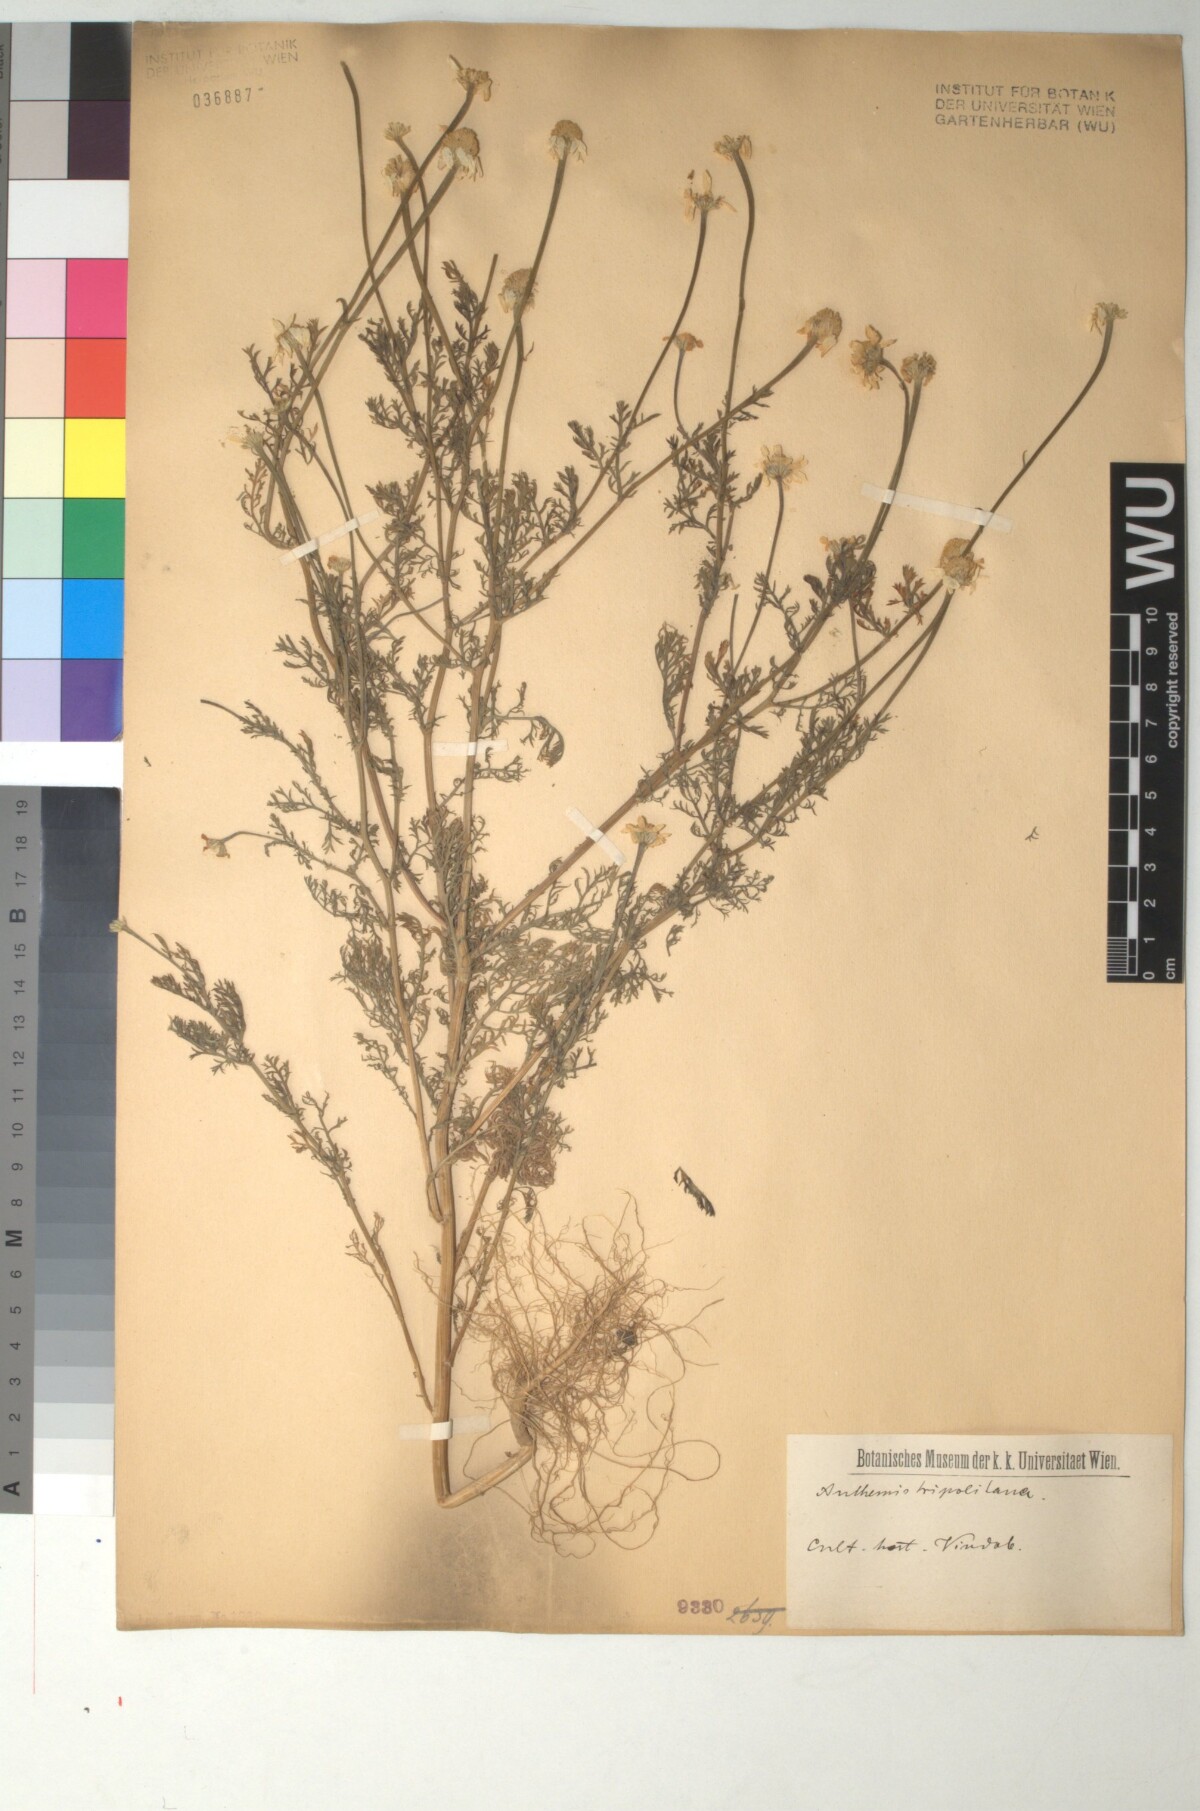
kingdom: Plantae
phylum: Tracheophyta
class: Magnoliopsida
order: Asterales
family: Asteraceae
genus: Anthemis
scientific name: Anthemis tripolitana
